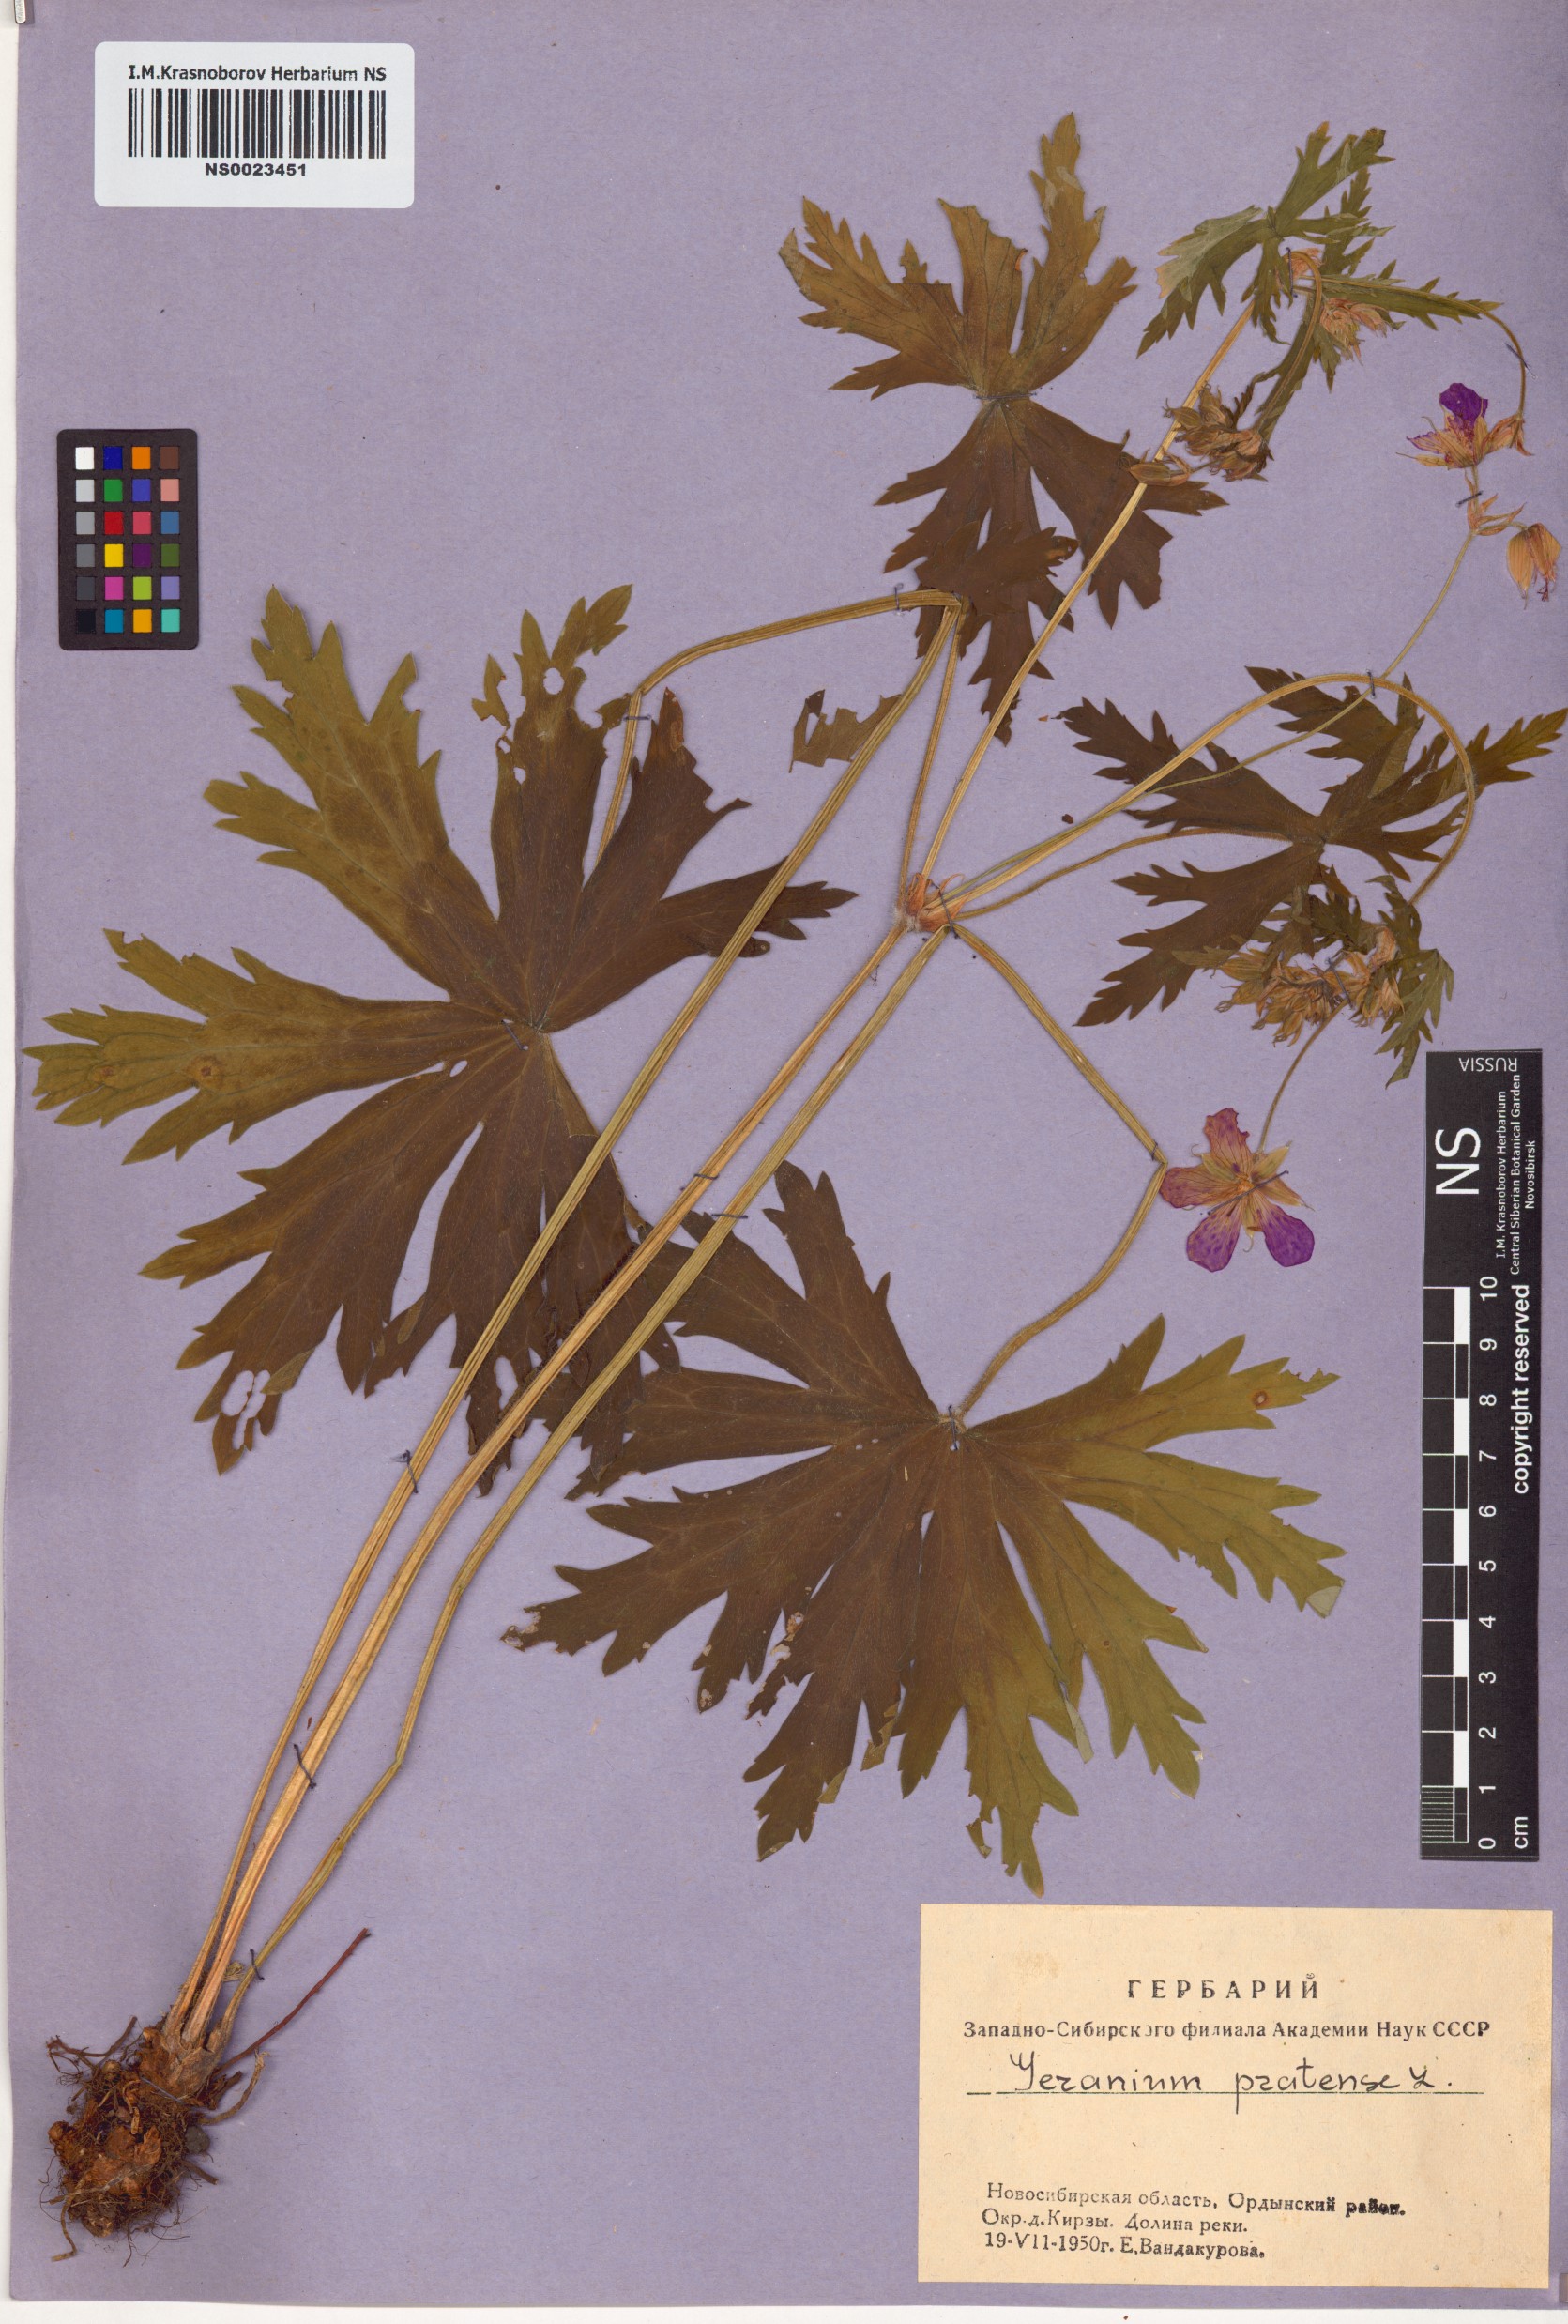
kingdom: Plantae
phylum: Tracheophyta
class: Magnoliopsida
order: Geraniales
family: Geraniaceae
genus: Geranium
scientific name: Geranium pratense
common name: Meadow crane's-bill
